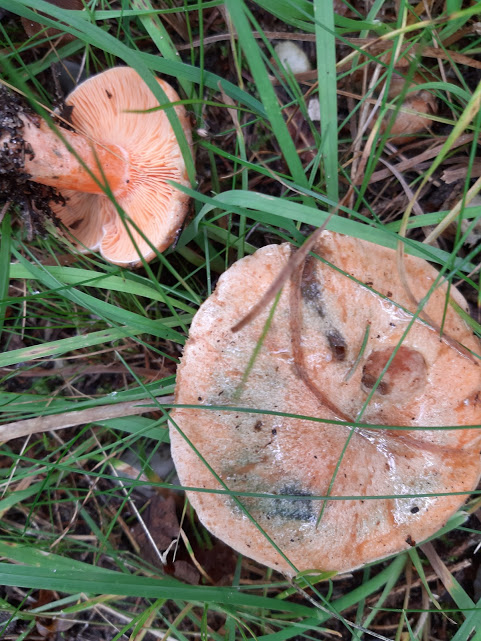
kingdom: Fungi
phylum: Basidiomycota
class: Agaricomycetes
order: Russulales
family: Russulaceae
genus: Lactarius
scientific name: Lactarius deterrimus
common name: gran-mælkehat
